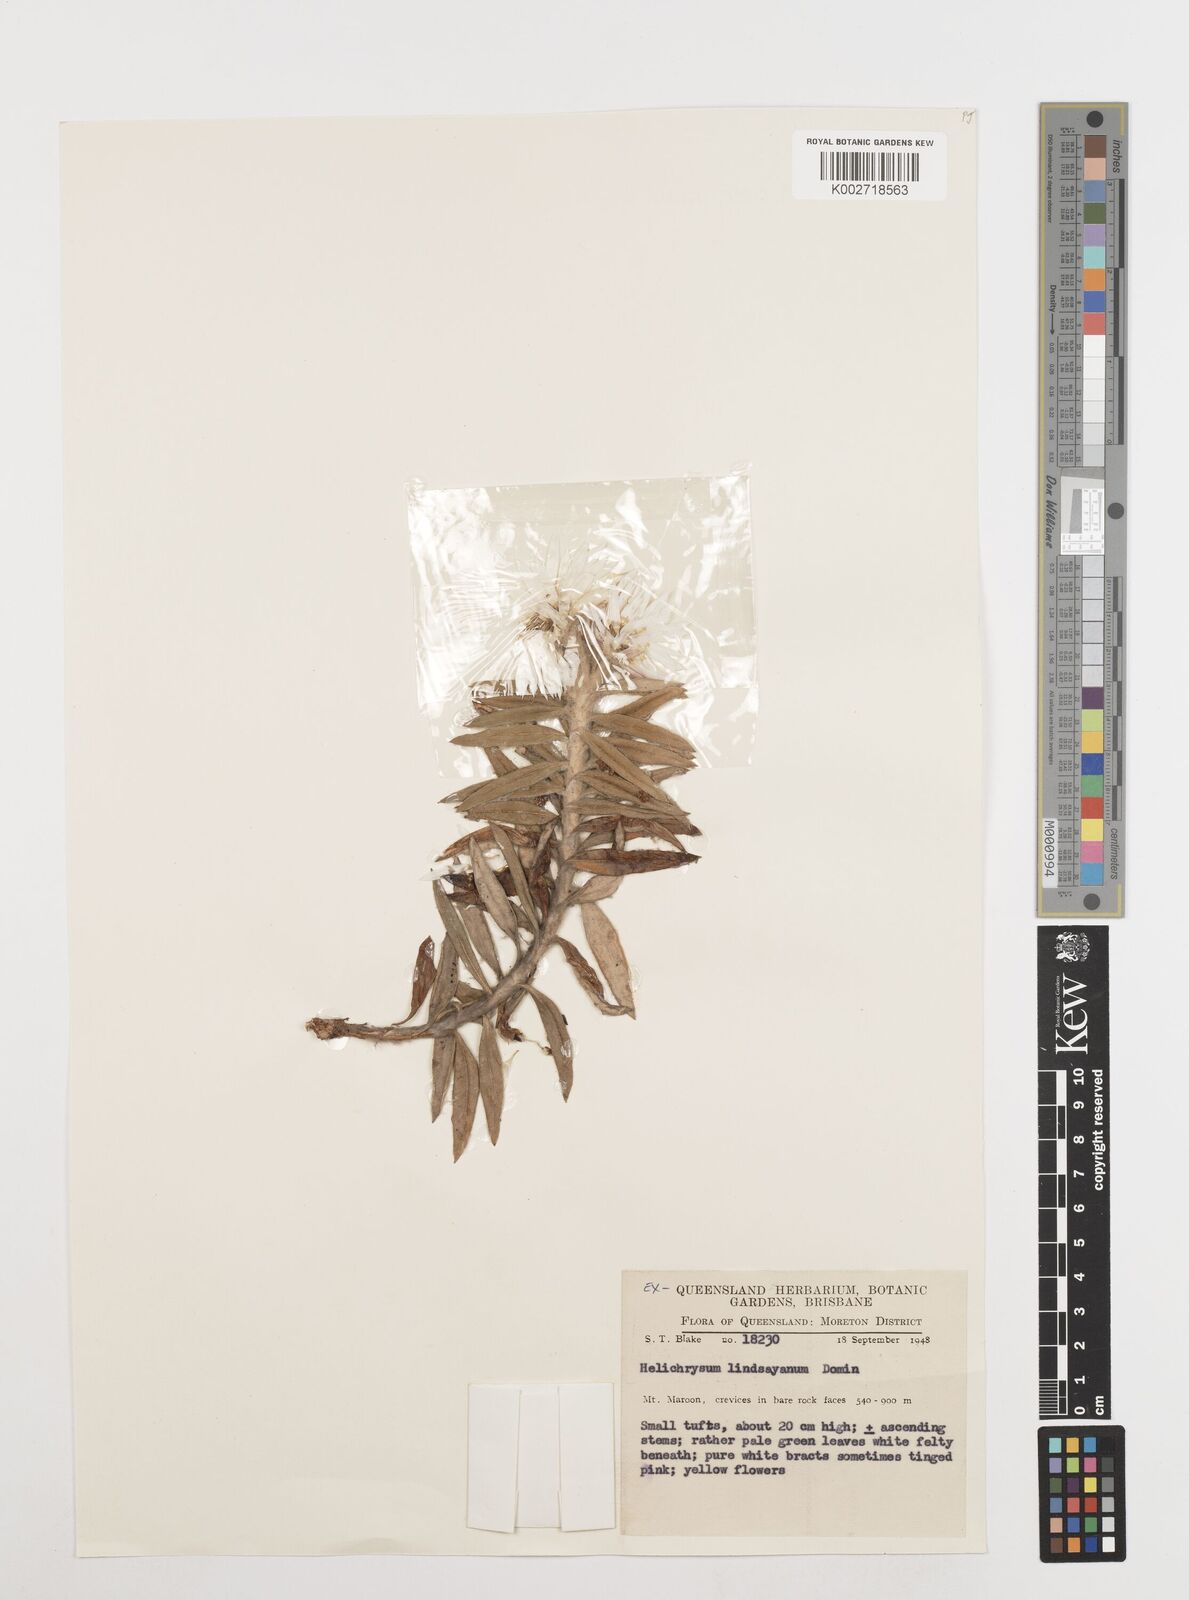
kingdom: Plantae
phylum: Tracheophyta
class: Magnoliopsida
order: Asterales
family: Asteraceae
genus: Leucozoma
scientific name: Leucozoma lindsayanum
